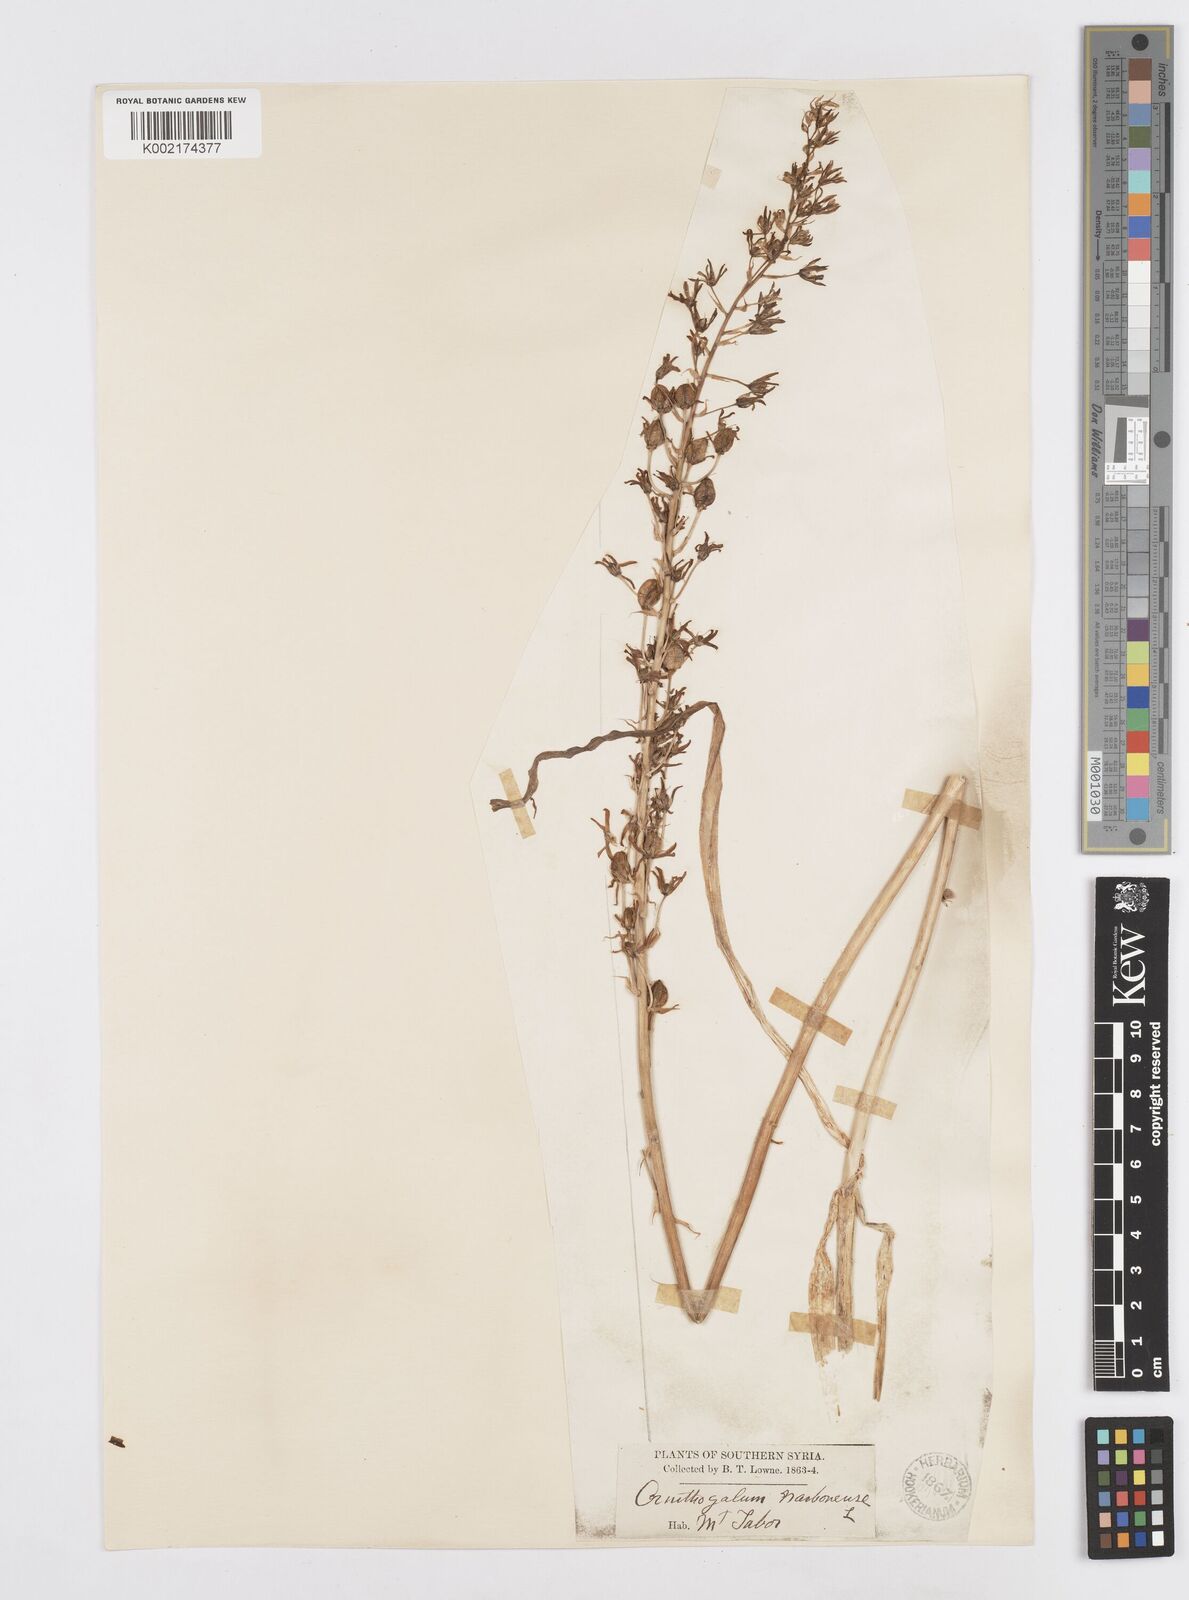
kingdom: Plantae
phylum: Tracheophyta
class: Liliopsida
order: Asparagales
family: Asparagaceae
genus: Ornithogalum
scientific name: Ornithogalum narbonense
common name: Bath-asparagus
